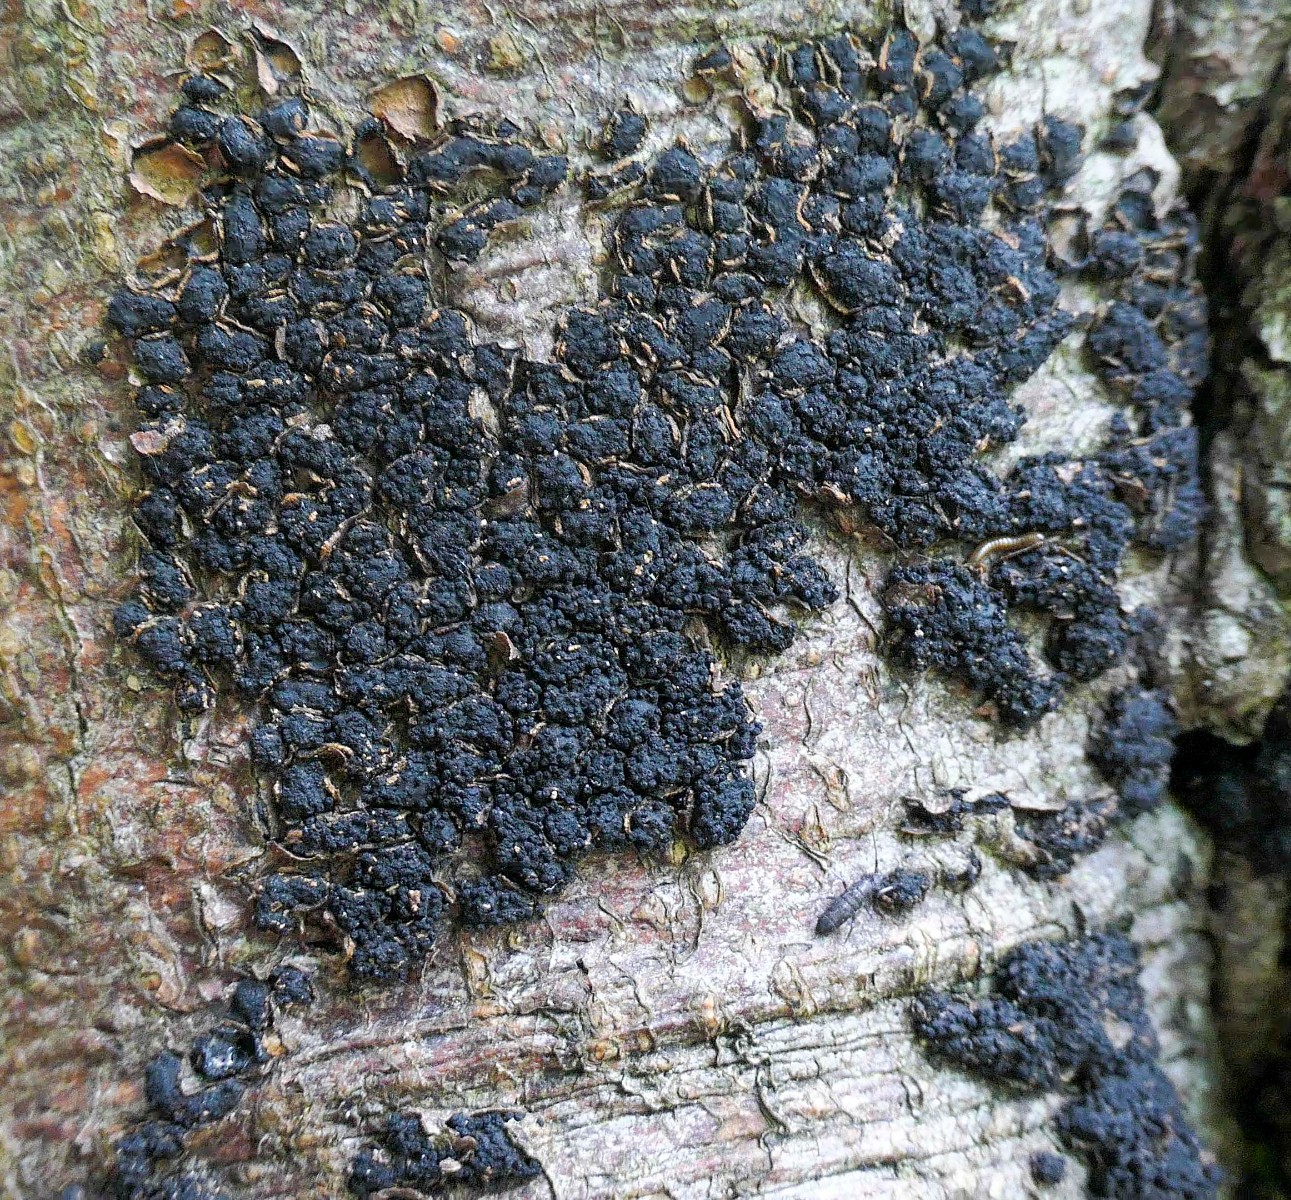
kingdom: Fungi
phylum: Ascomycota
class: Sordariomycetes
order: Xylariales
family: Melogrammataceae
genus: Melogramma
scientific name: Melogramma spiniferum
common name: bøgefod-kulhals
